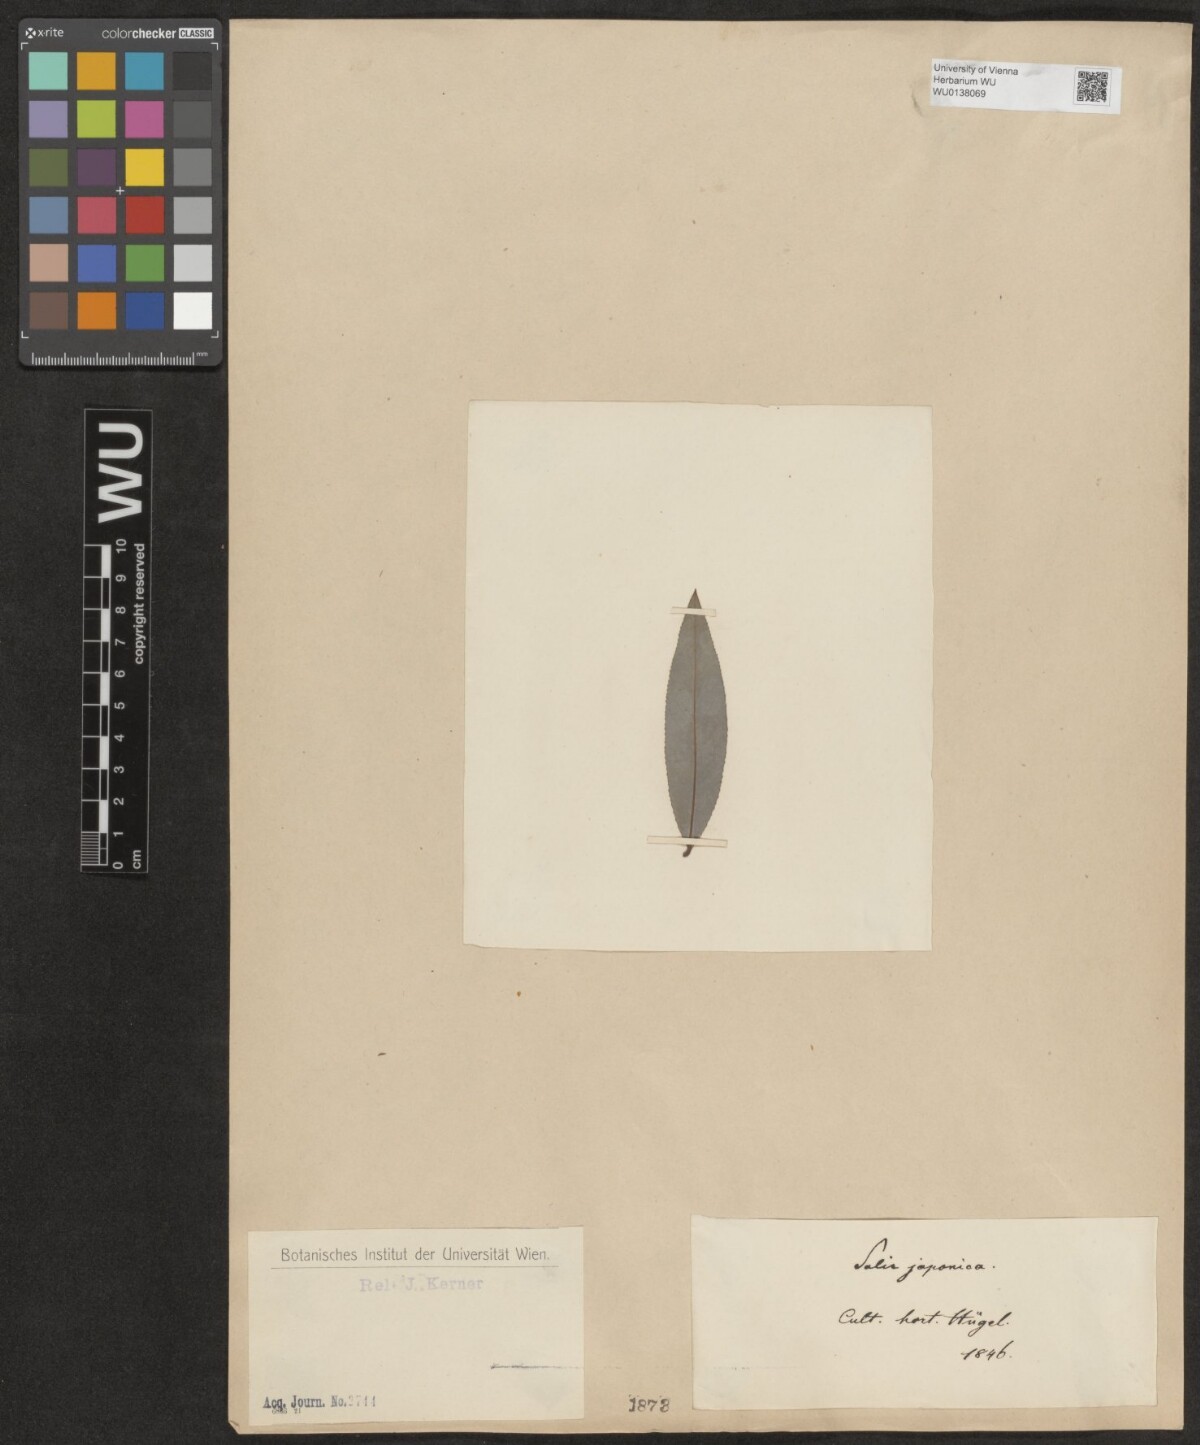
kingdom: Plantae
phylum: Tracheophyta
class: Magnoliopsida
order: Malpighiales
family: Salicaceae
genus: Salix
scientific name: Salix japonica
